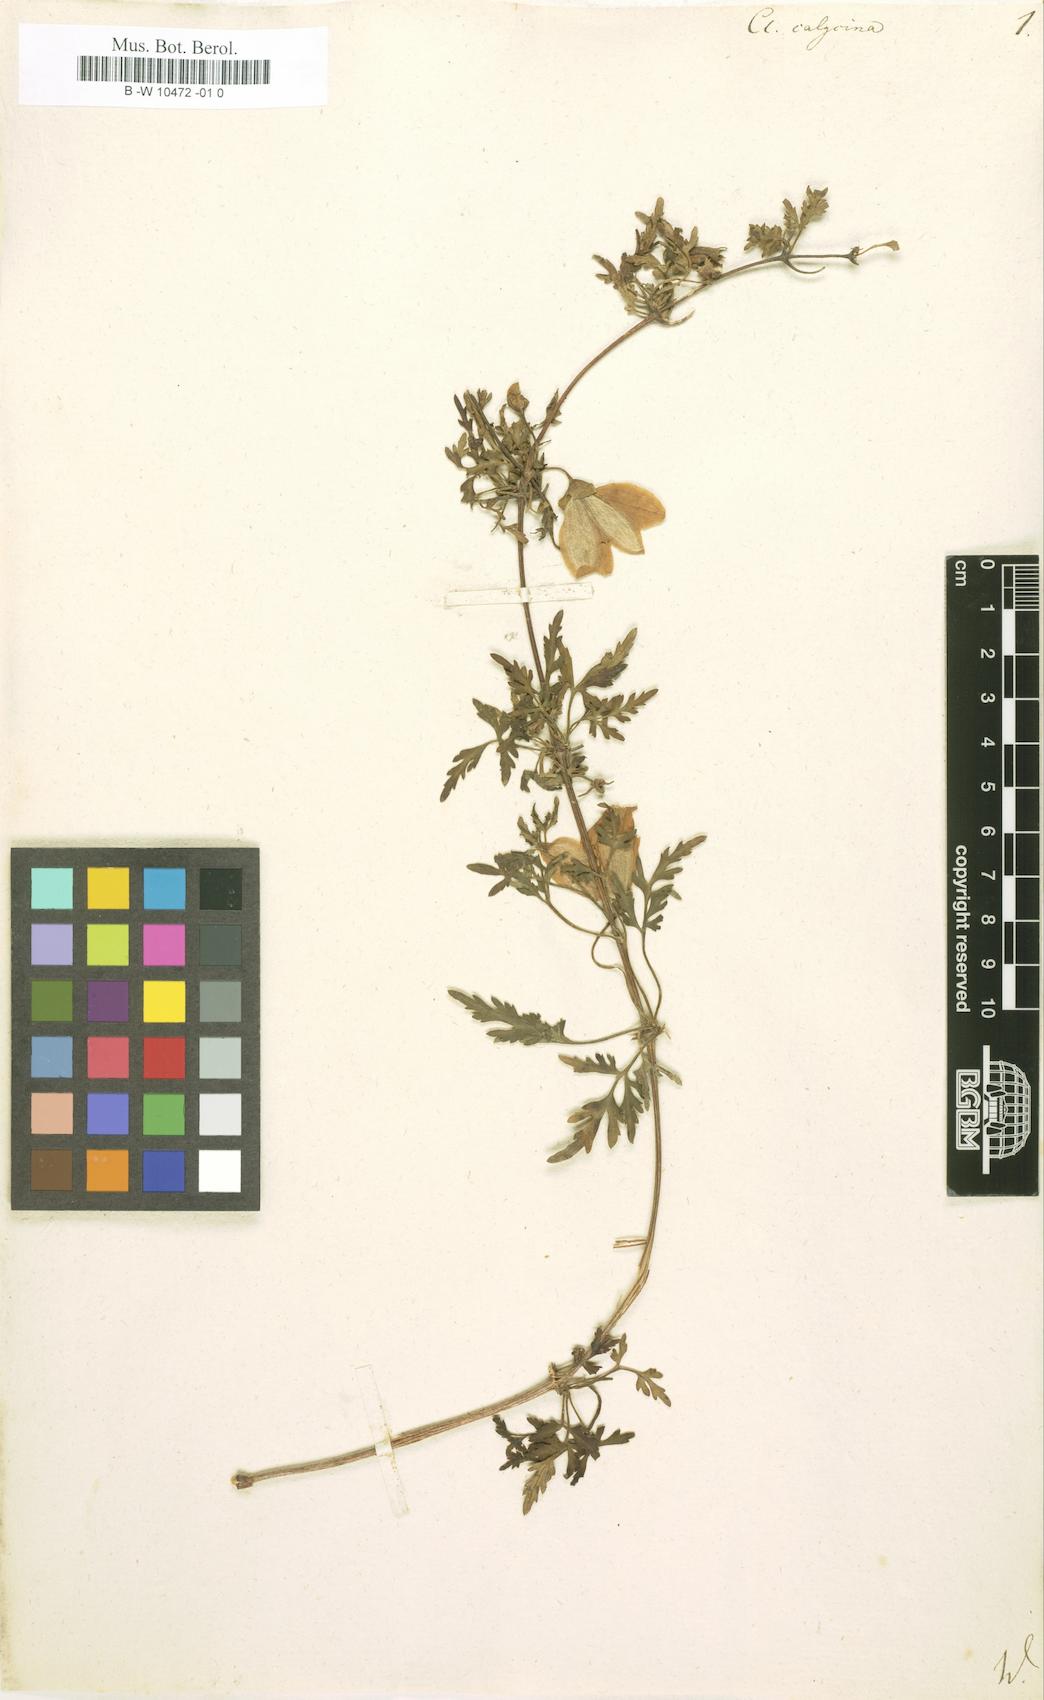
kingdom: Plantae
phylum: Tracheophyta
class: Magnoliopsida
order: Ranunculales
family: Ranunculaceae
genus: Clematis
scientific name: Clematis cirrhosa
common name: Early virgin's-bower
